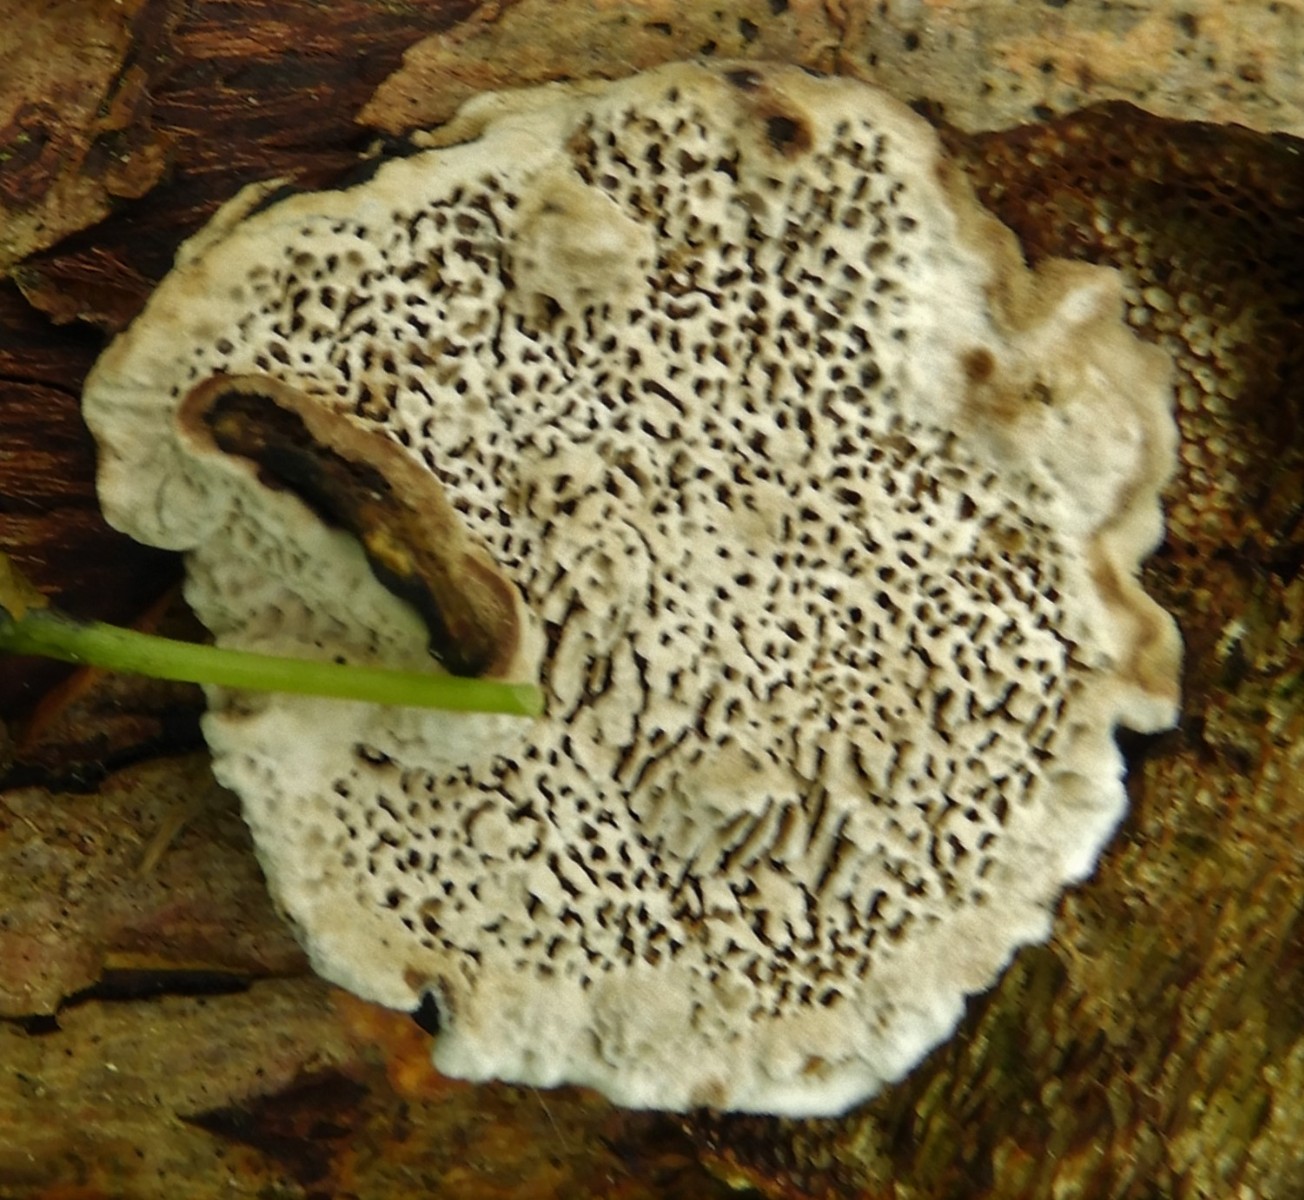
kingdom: Fungi
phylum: Basidiomycota
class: Agaricomycetes
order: Polyporales
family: Polyporaceae
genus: Podofomes
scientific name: Podofomes mollis
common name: blød begporesvamp
